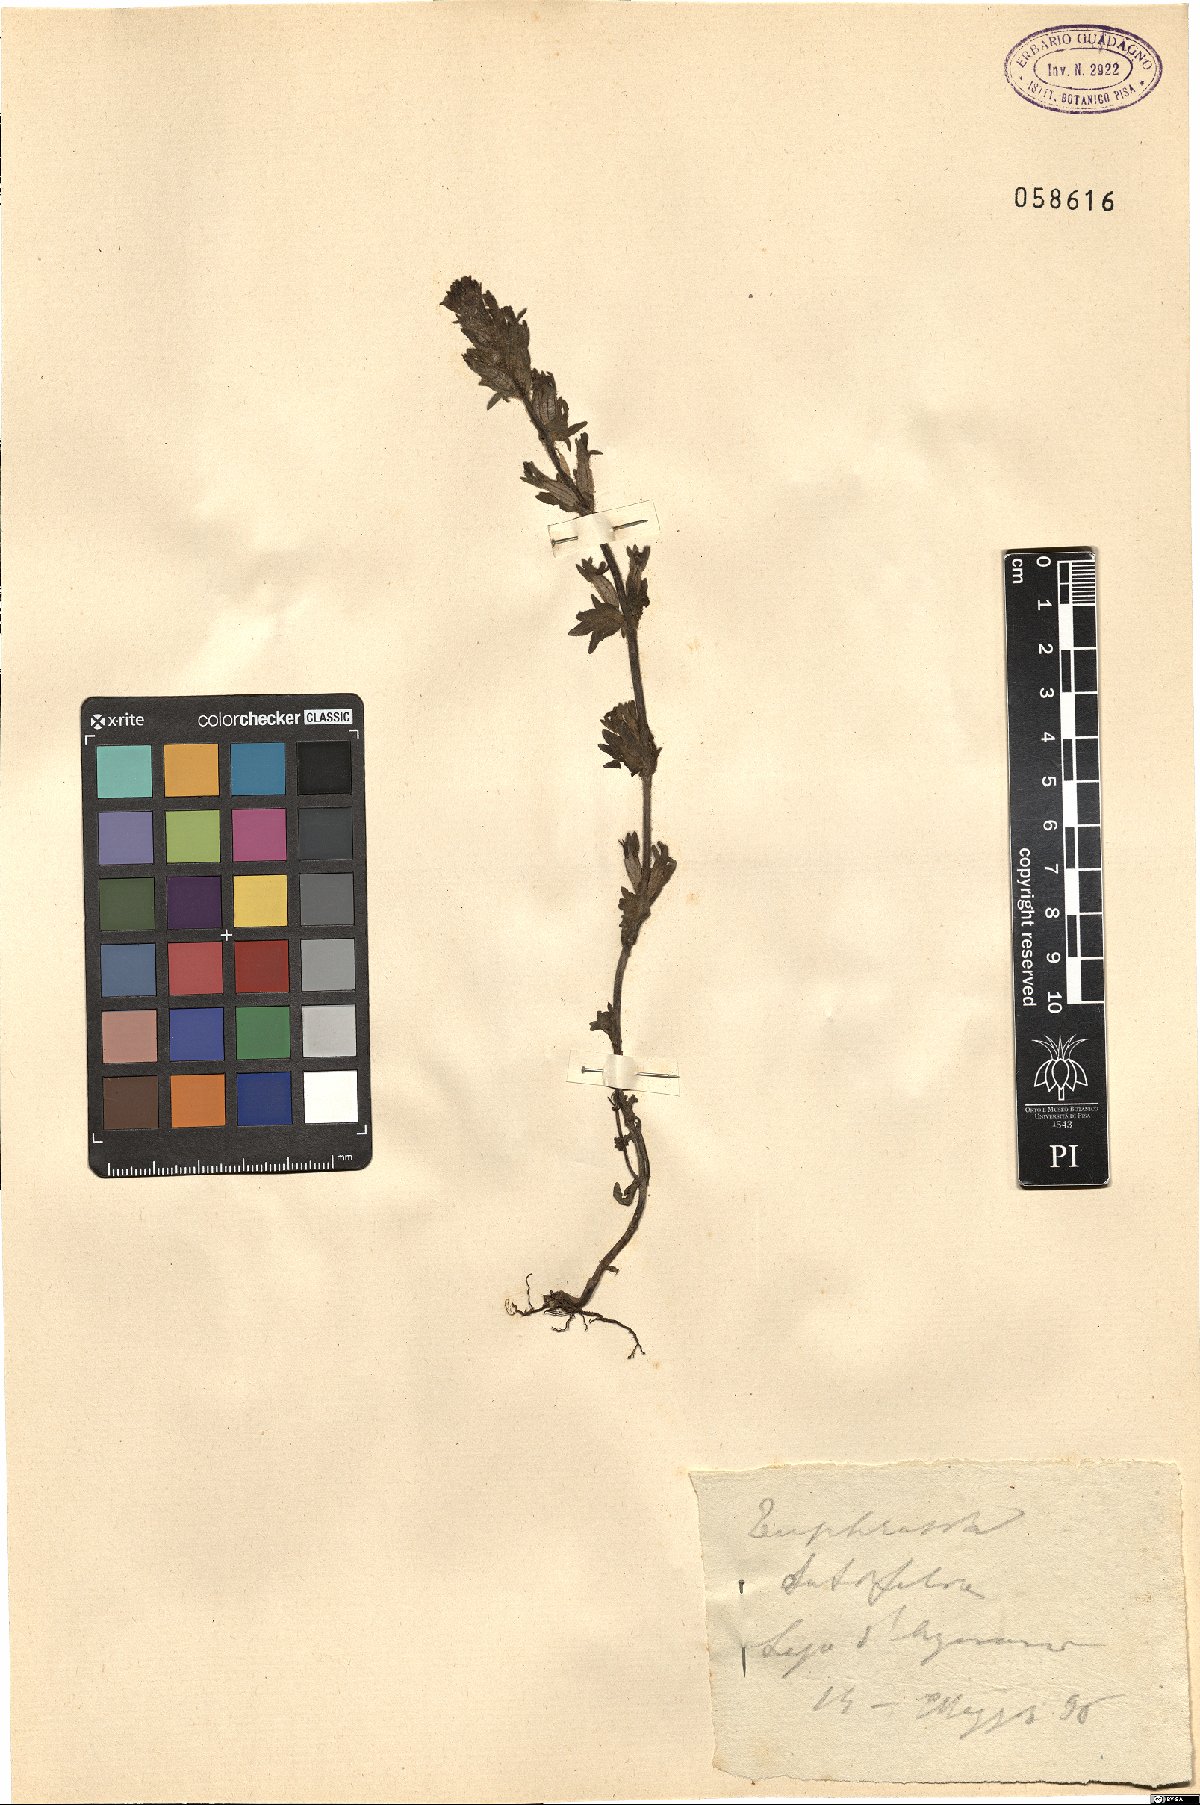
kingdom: Plantae
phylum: Tracheophyta
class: Magnoliopsida
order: Lamiales
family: Orobanchaceae
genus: Parentucellia
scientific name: Parentucellia latifolia
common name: Broadleaf glandweed
